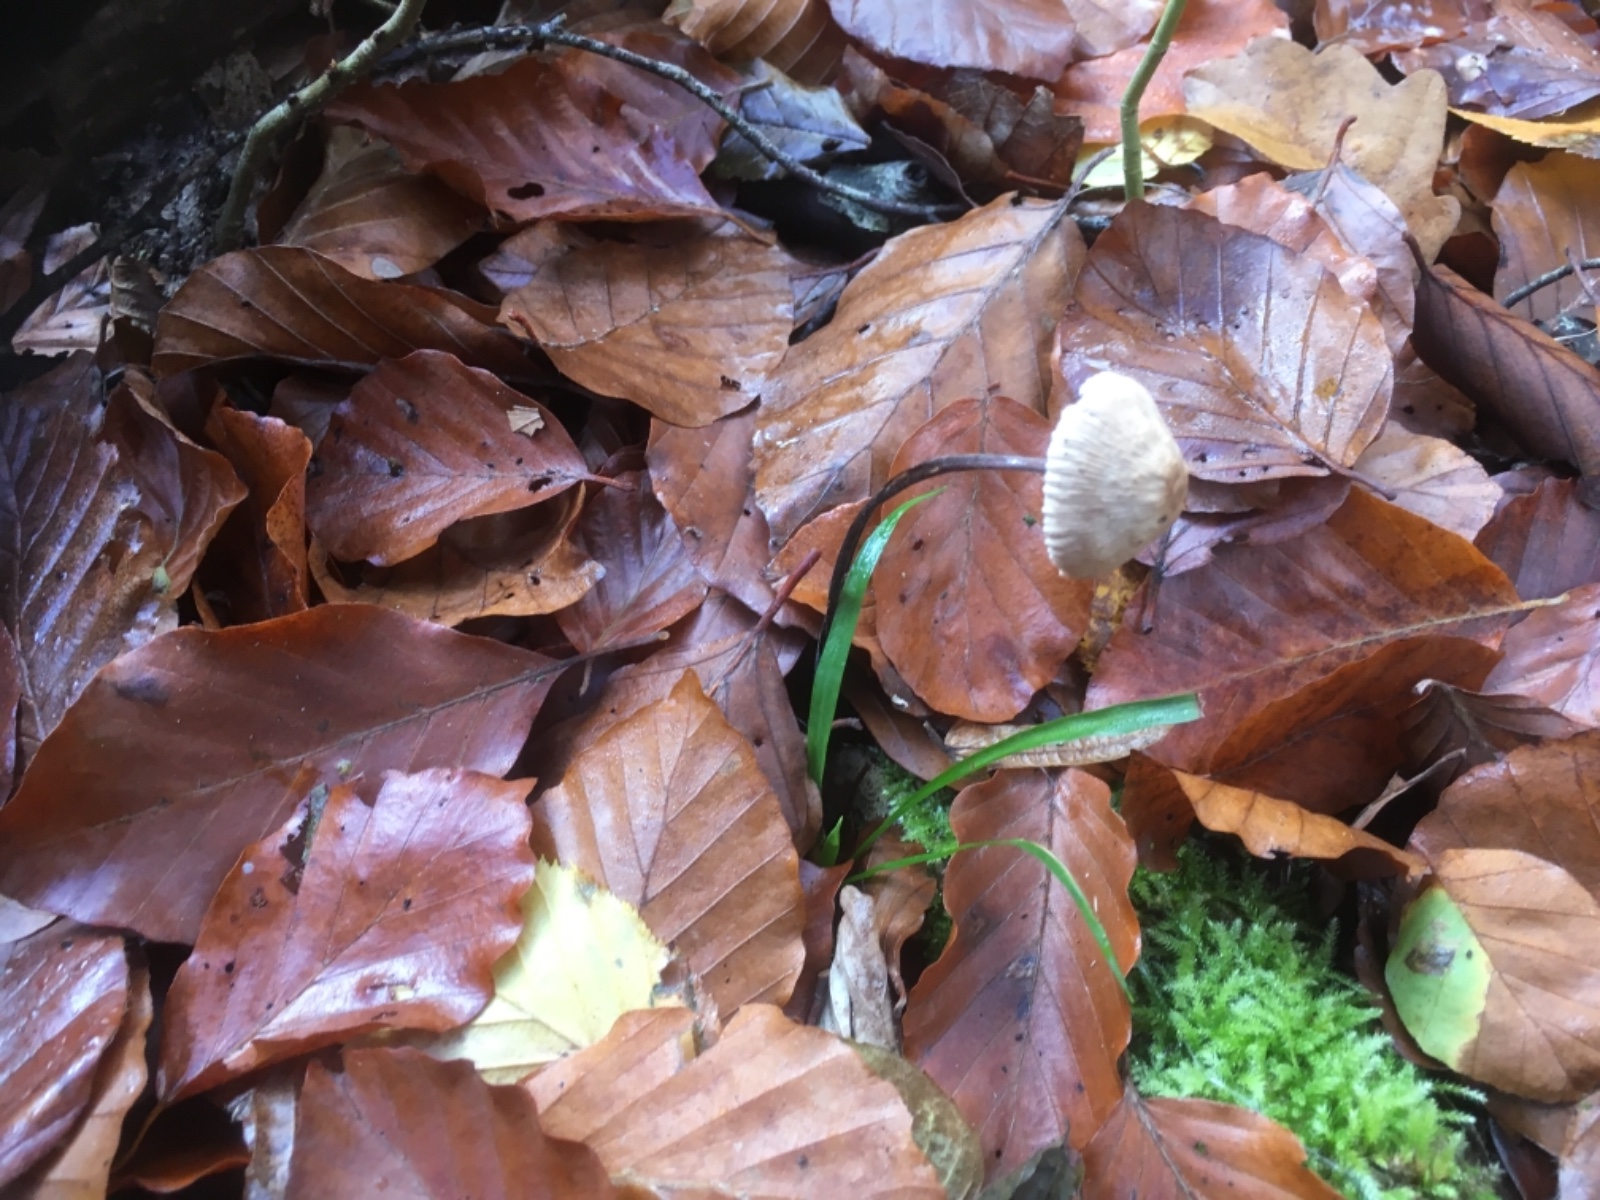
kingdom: Fungi
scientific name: Fungi
